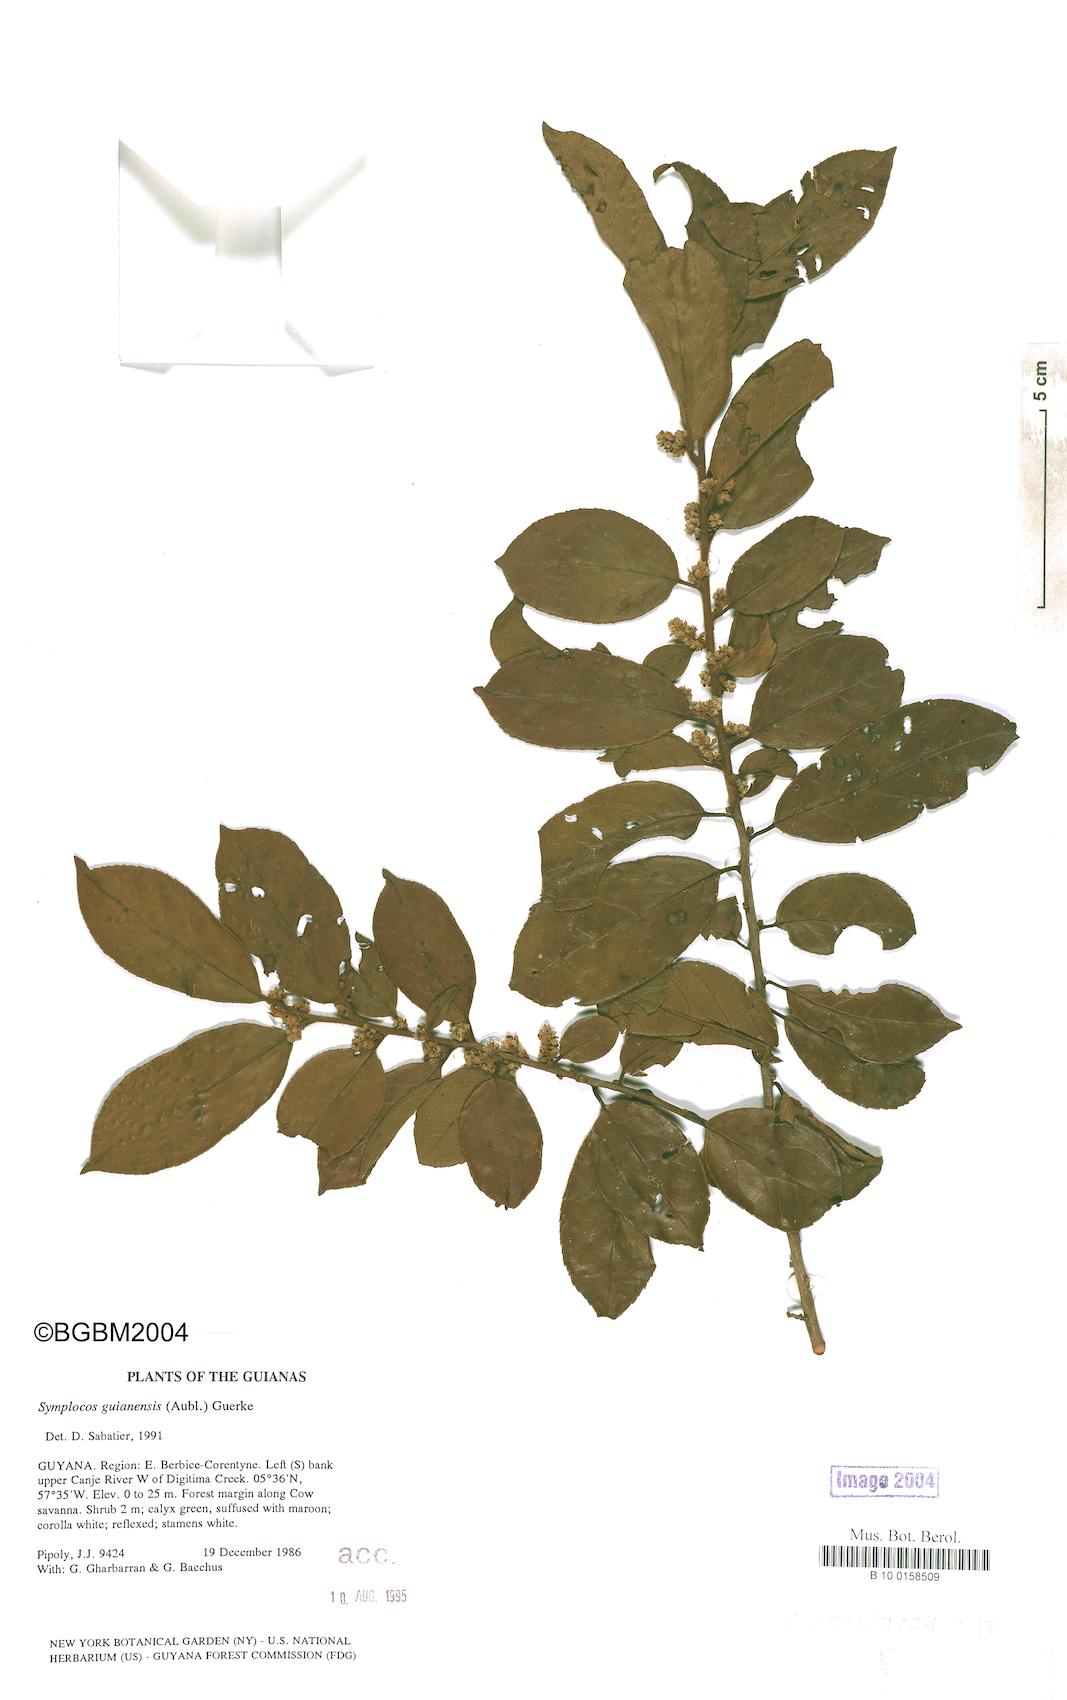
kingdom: Plantae
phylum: Tracheophyta
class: Magnoliopsida
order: Ericales
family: Symplocaceae
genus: Symplocos
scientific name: Symplocos guianensis
